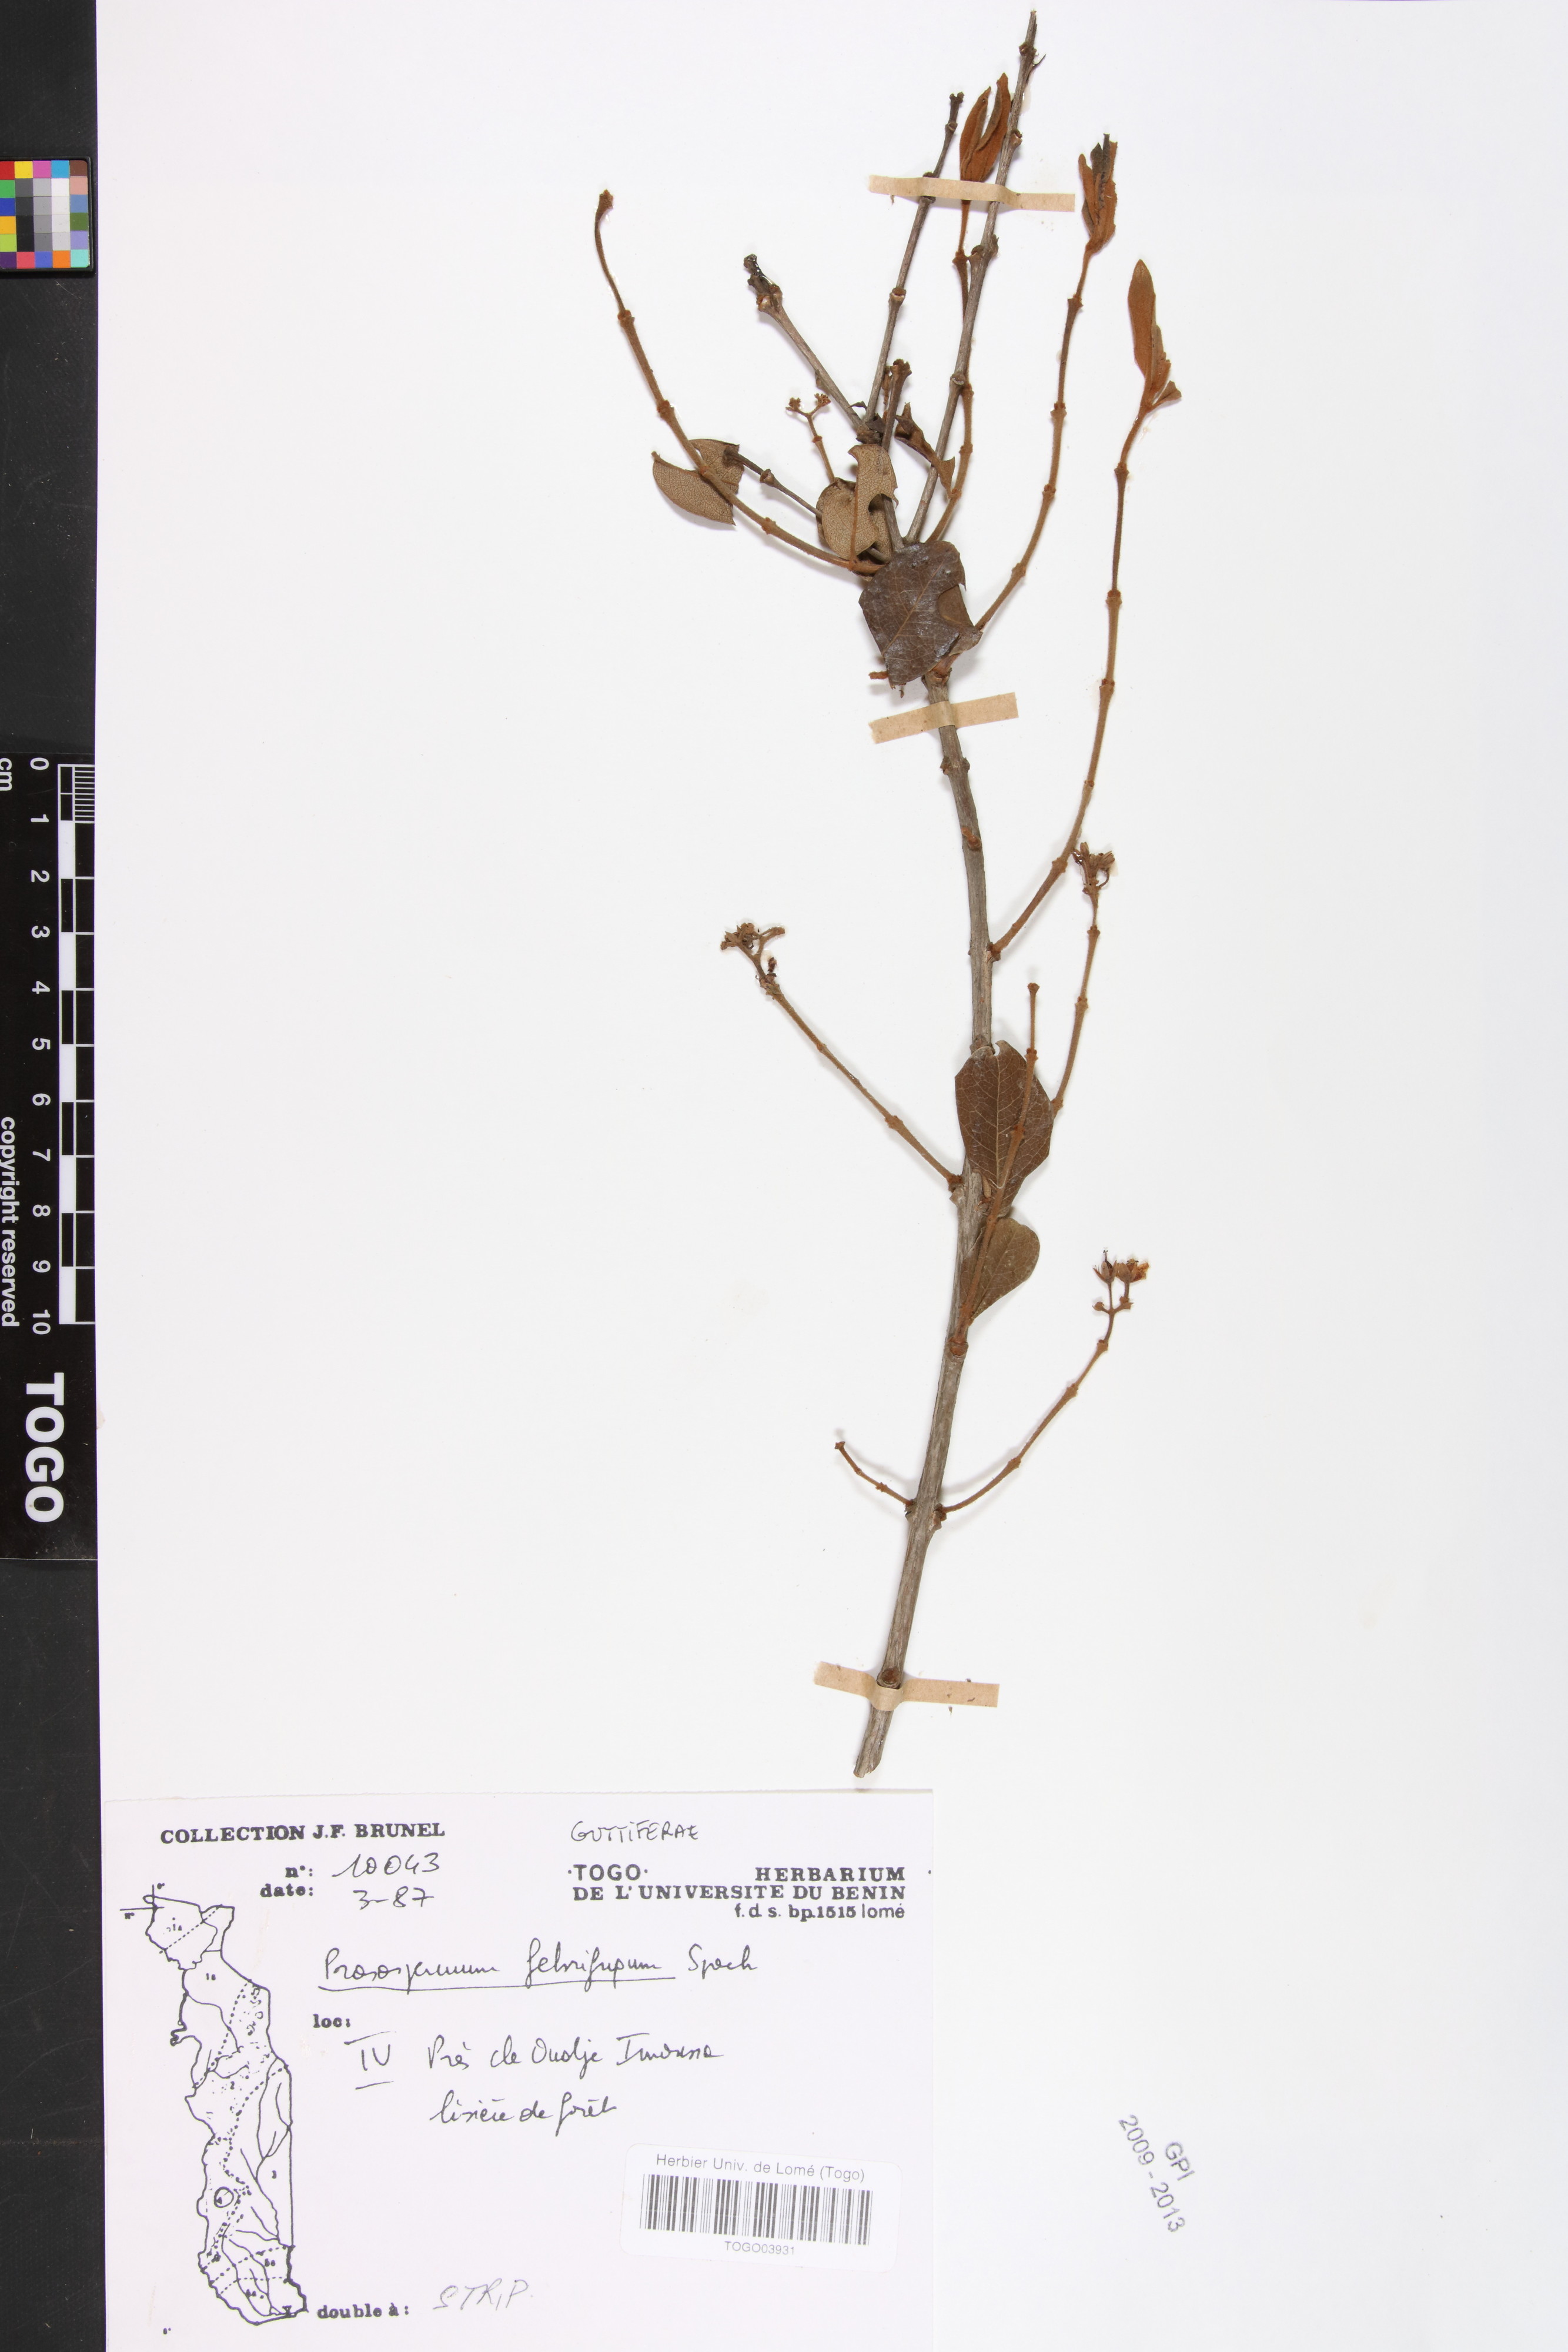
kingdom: Plantae
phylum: Tracheophyta
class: Magnoliopsida
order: Malpighiales
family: Hypericaceae
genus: Psorospermum
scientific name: Psorospermum febrifugum
